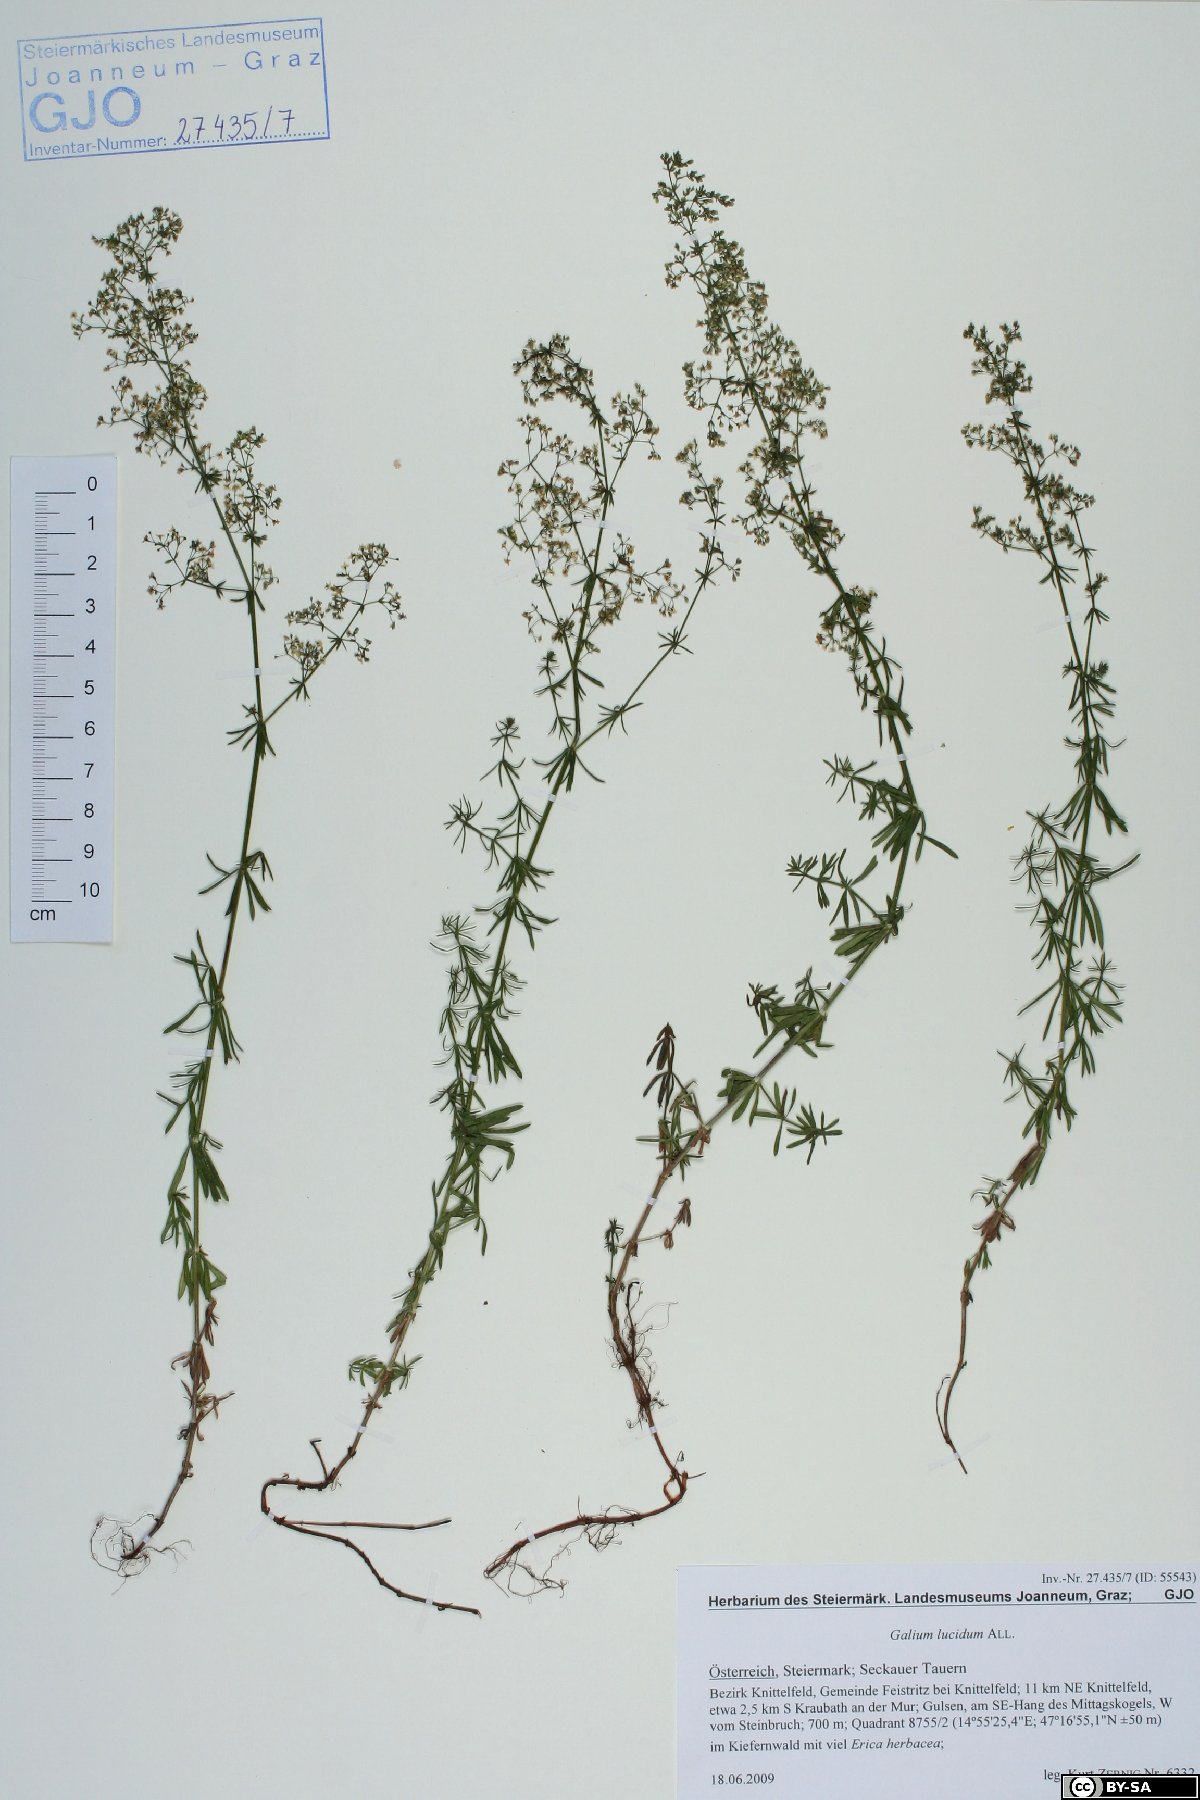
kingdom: Plantae
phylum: Tracheophyta
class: Magnoliopsida
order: Gentianales
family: Rubiaceae
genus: Galium
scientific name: Galium lucidum
